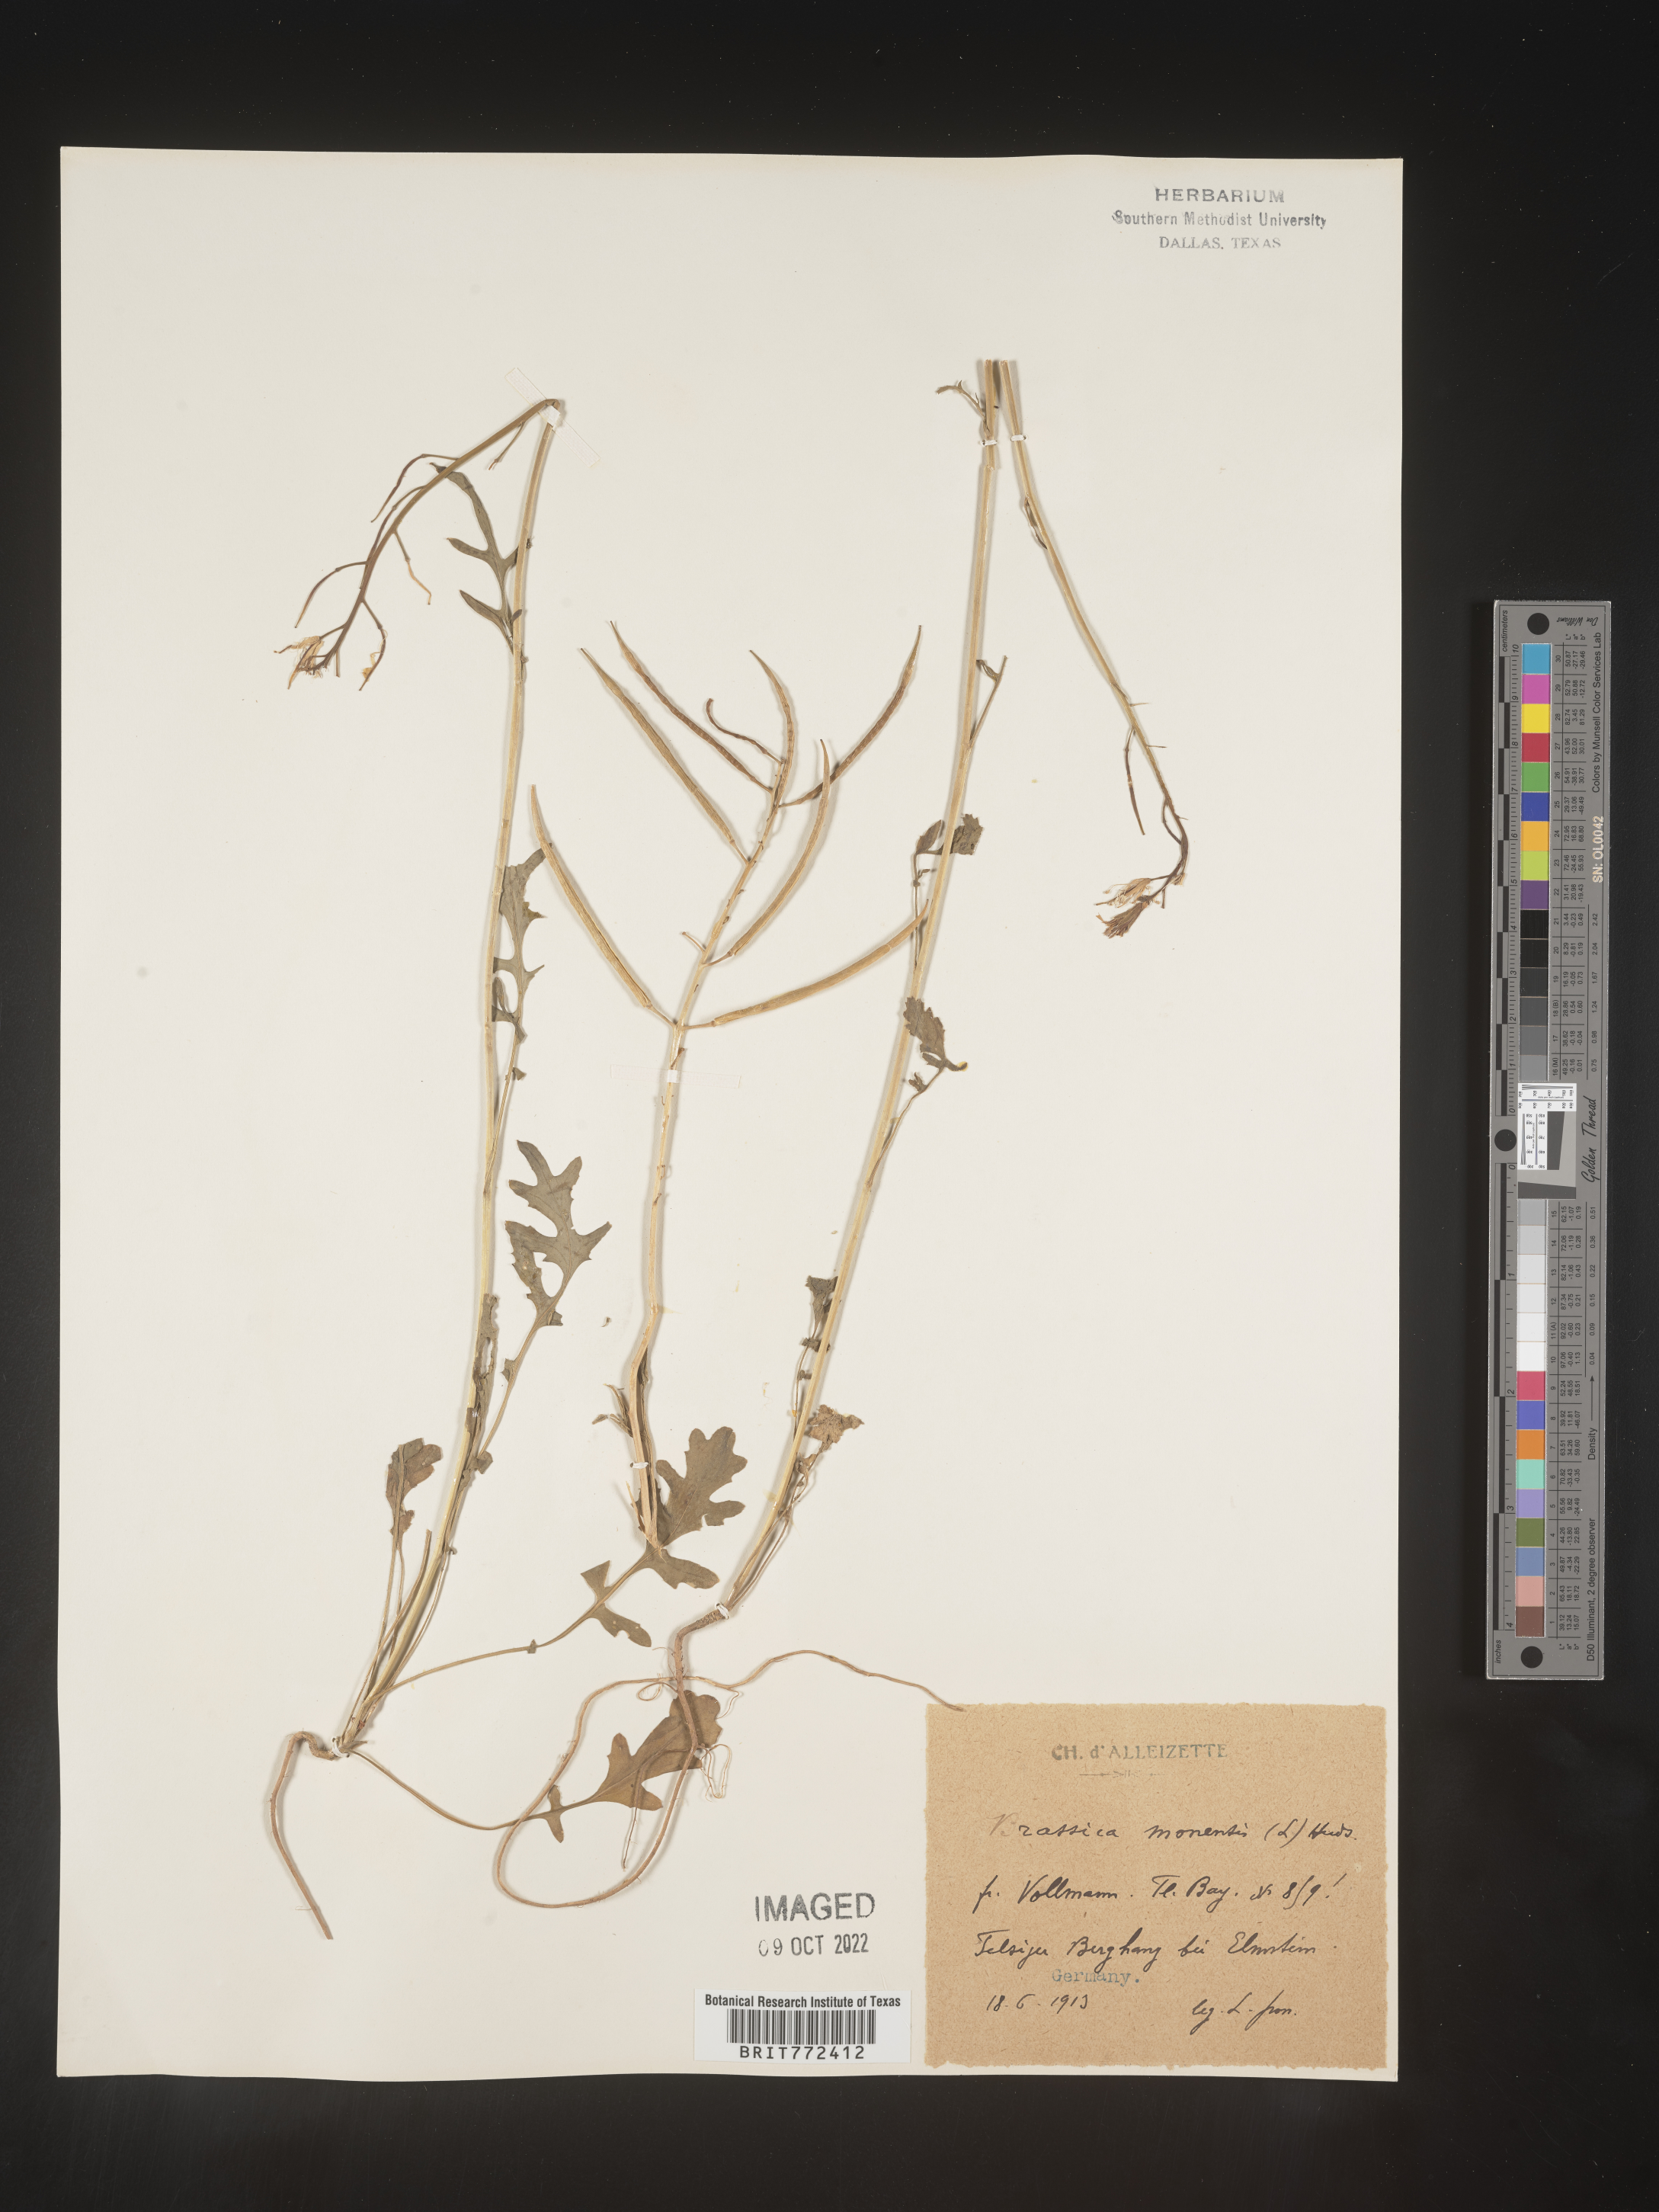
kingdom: Plantae
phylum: Tracheophyta
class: Magnoliopsida
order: Brassicales
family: Brassicaceae
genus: Brassica
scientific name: Brassica
